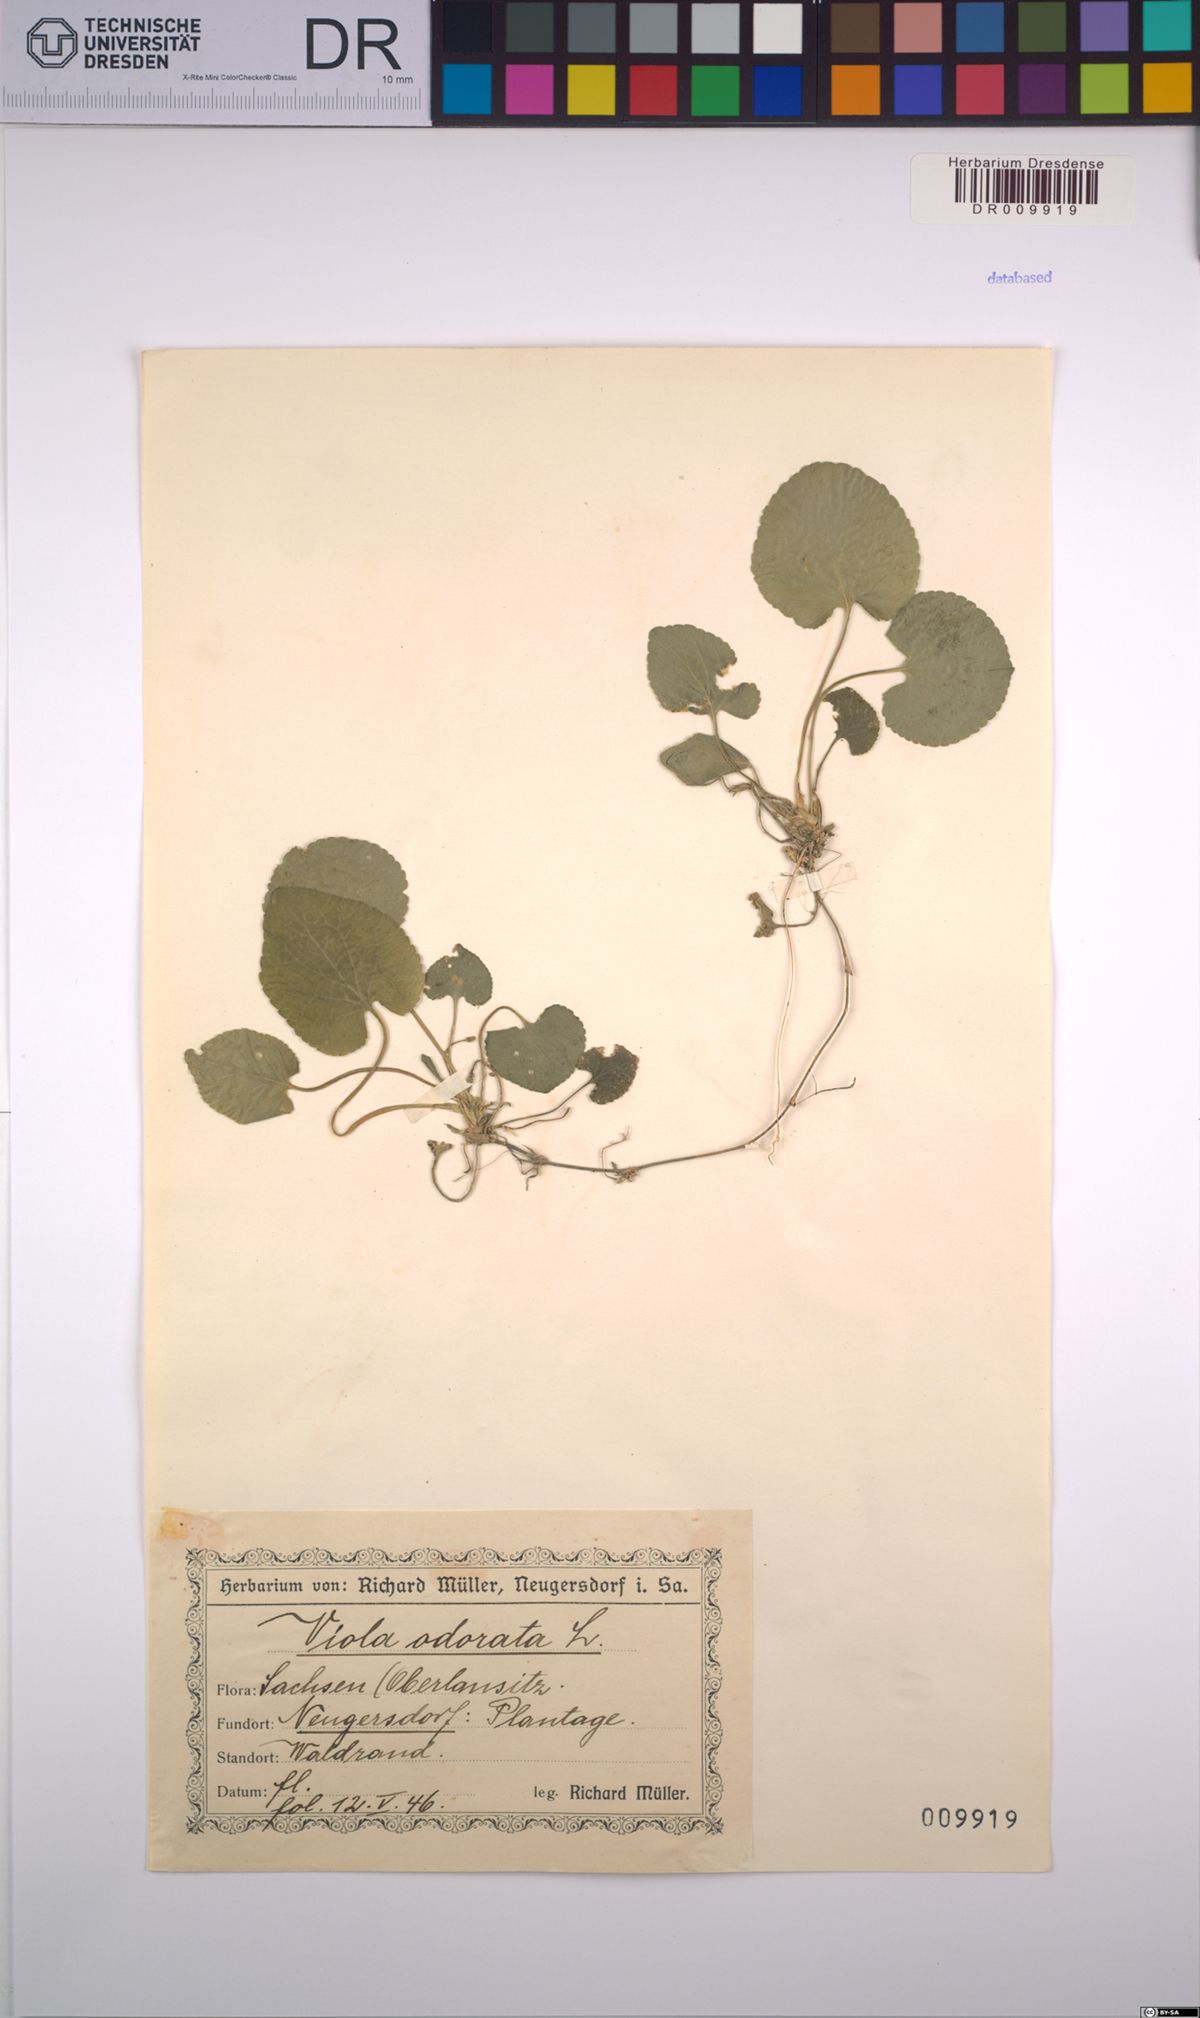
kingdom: Plantae
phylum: Tracheophyta
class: Magnoliopsida
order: Malpighiales
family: Violaceae
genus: Viola
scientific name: Viola odorata
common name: Sweet violet
